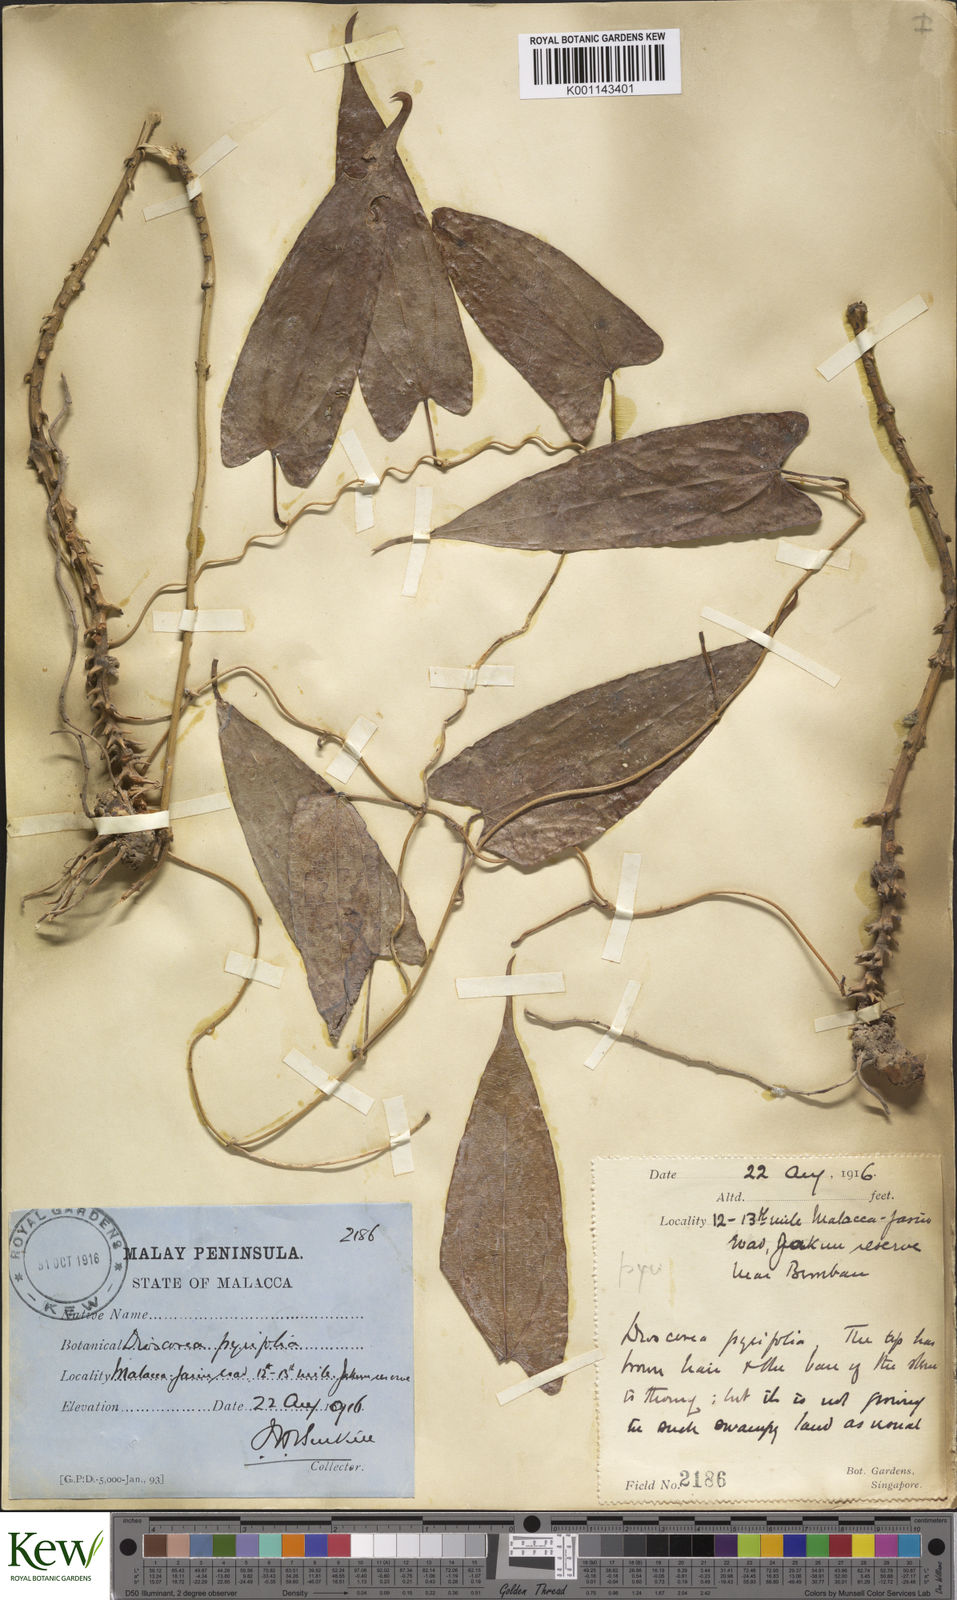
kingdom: Plantae
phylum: Tracheophyta
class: Liliopsida
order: Dioscoreales
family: Dioscoreaceae
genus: Dioscorea
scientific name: Dioscorea pyrifolia
